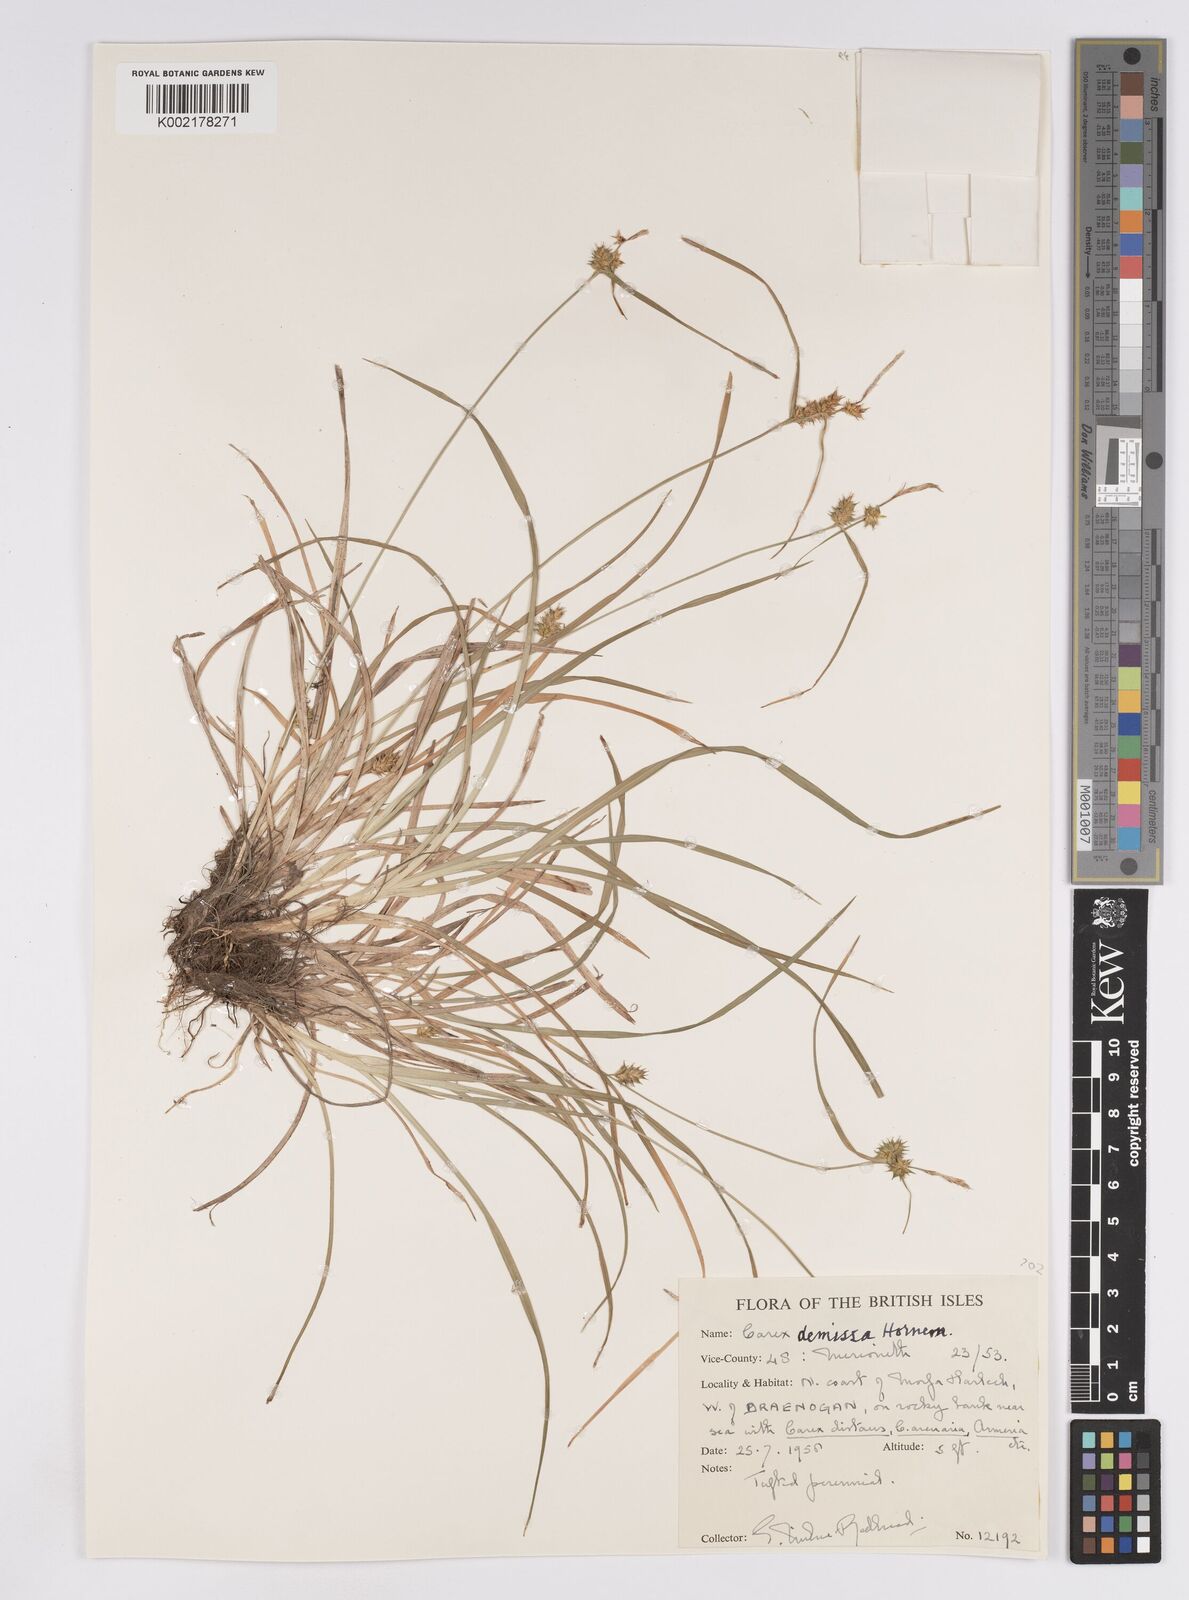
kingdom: Plantae
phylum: Tracheophyta
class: Liliopsida
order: Poales
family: Cyperaceae
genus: Carex
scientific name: Carex demissa
